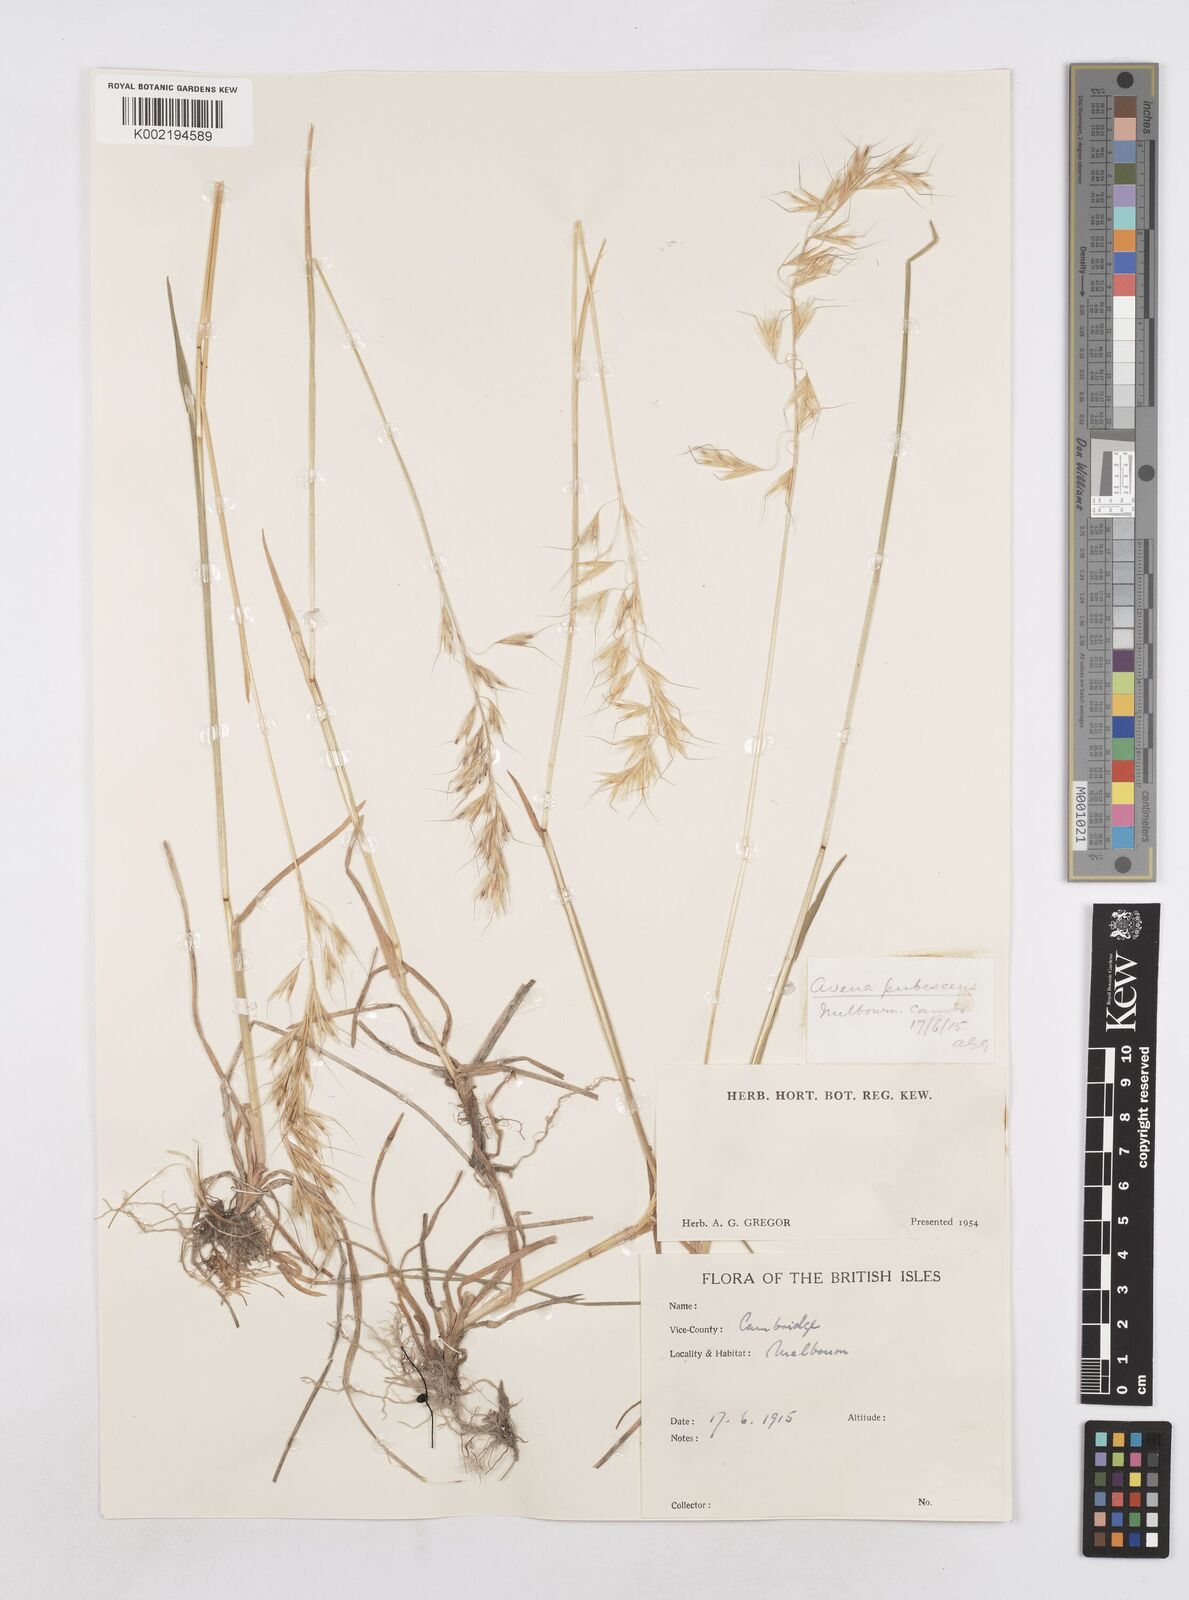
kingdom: Plantae
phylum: Tracheophyta
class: Liliopsida
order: Poales
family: Poaceae
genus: Avenula
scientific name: Avenula pubescens
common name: Downy alpine oatgrass
